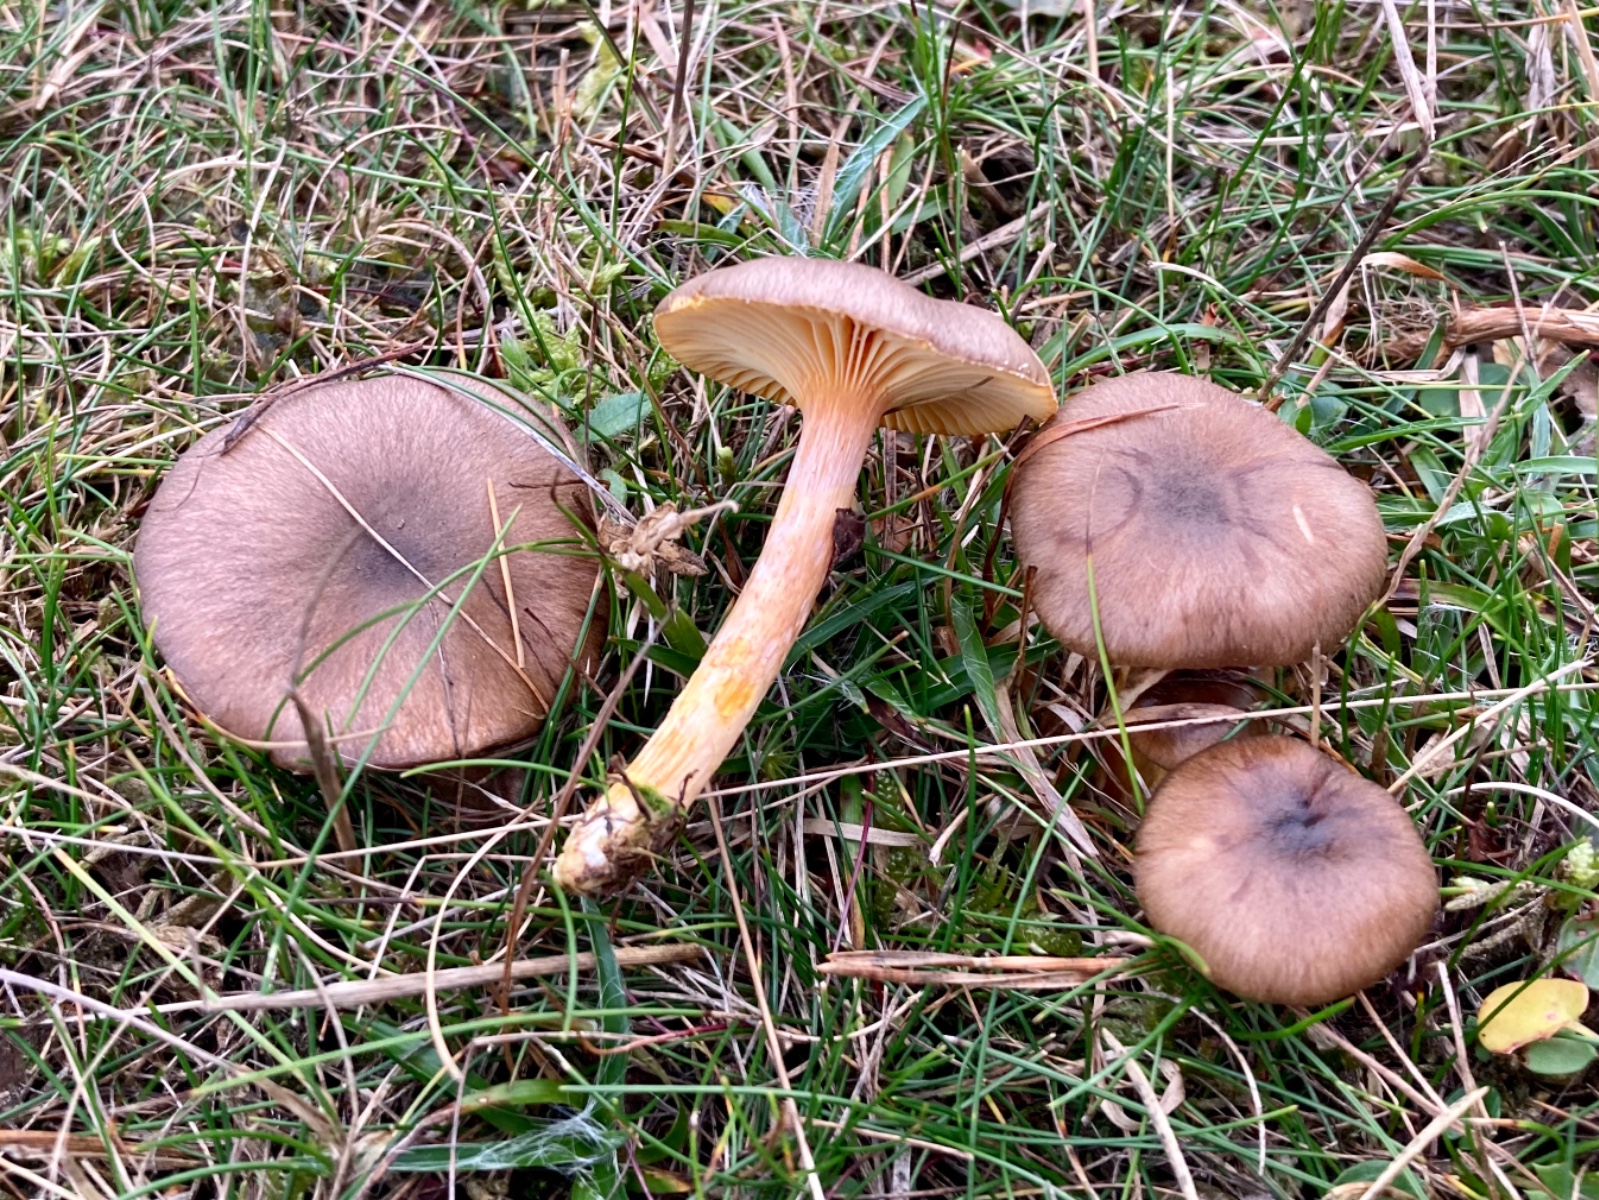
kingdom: Fungi
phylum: Basidiomycota
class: Agaricomycetes
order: Agaricales
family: Hygrophoraceae
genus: Hygrophorus
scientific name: Hygrophorus hypothejus
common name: frost-sneglehat
